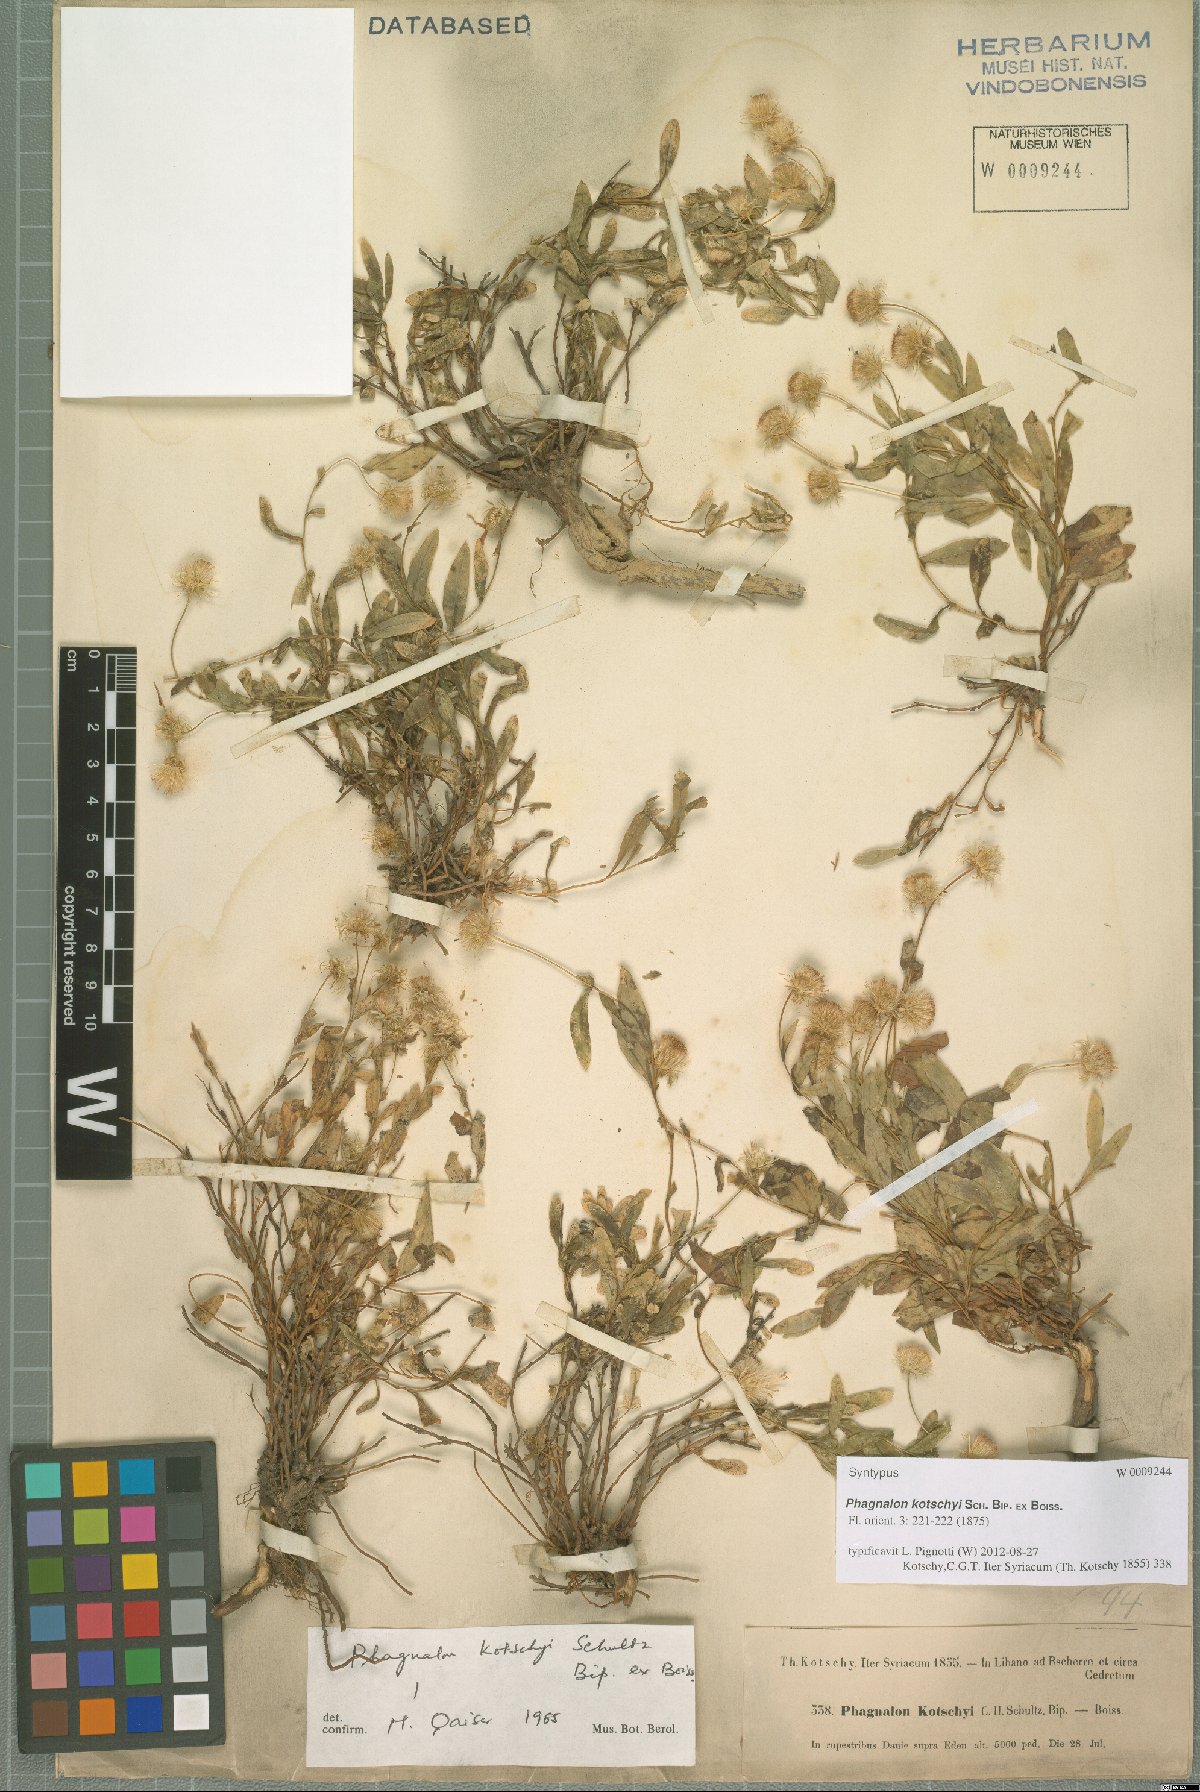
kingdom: Plantae
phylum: Tracheophyta
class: Magnoliopsida
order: Asterales
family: Asteraceae
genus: Phagnalon
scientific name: Phagnalon kotschyi
